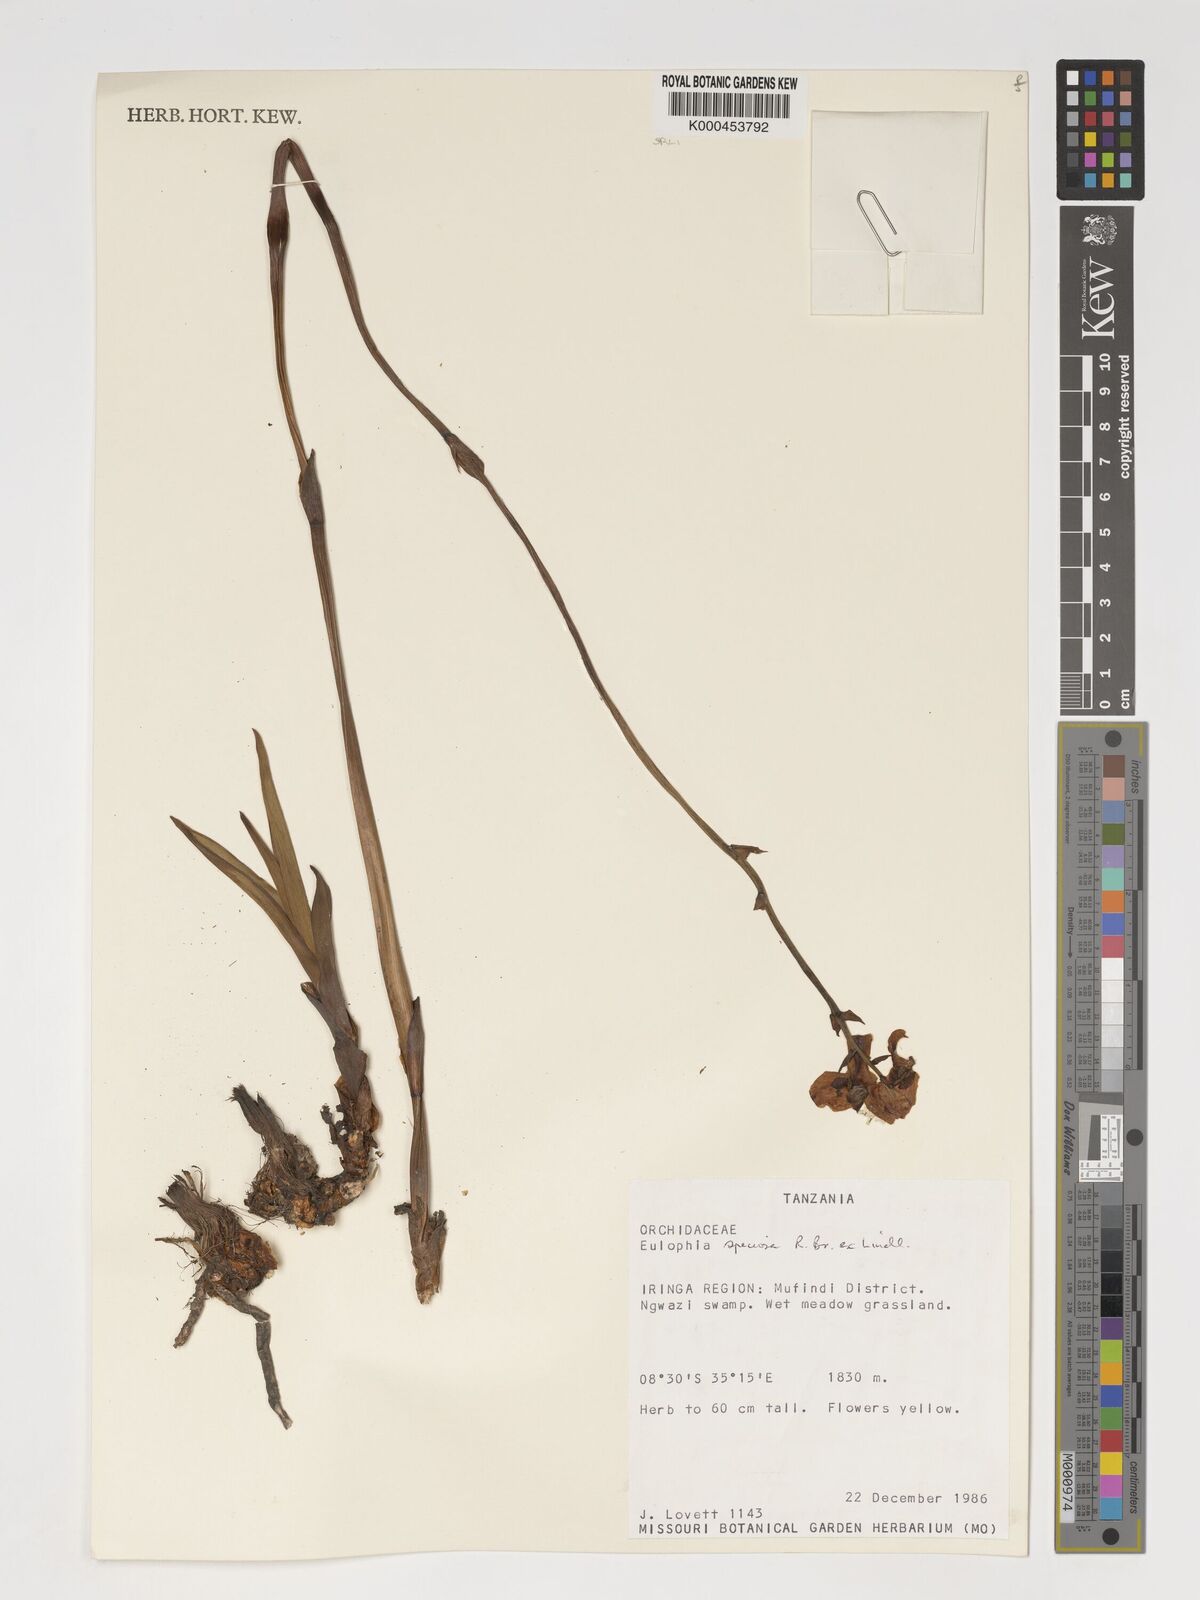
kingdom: Plantae
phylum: Tracheophyta
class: Liliopsida
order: Asparagales
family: Orchidaceae
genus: Eulophia
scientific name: Eulophia speciosa
